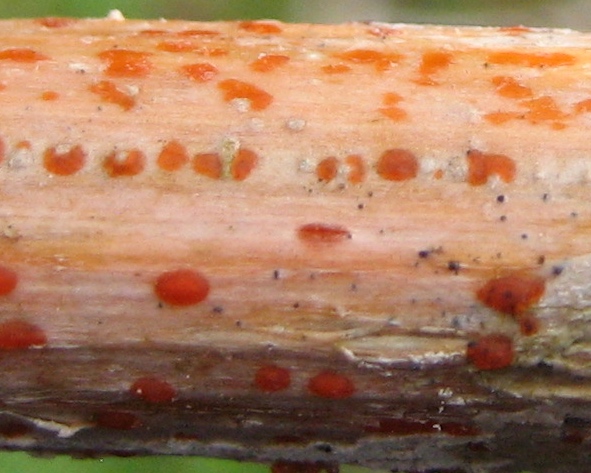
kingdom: Fungi
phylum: Ascomycota
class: Leotiomycetes
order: Helotiales
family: Calloriaceae
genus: Calloria
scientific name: Calloria urticae
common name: nælde-orangeskive
